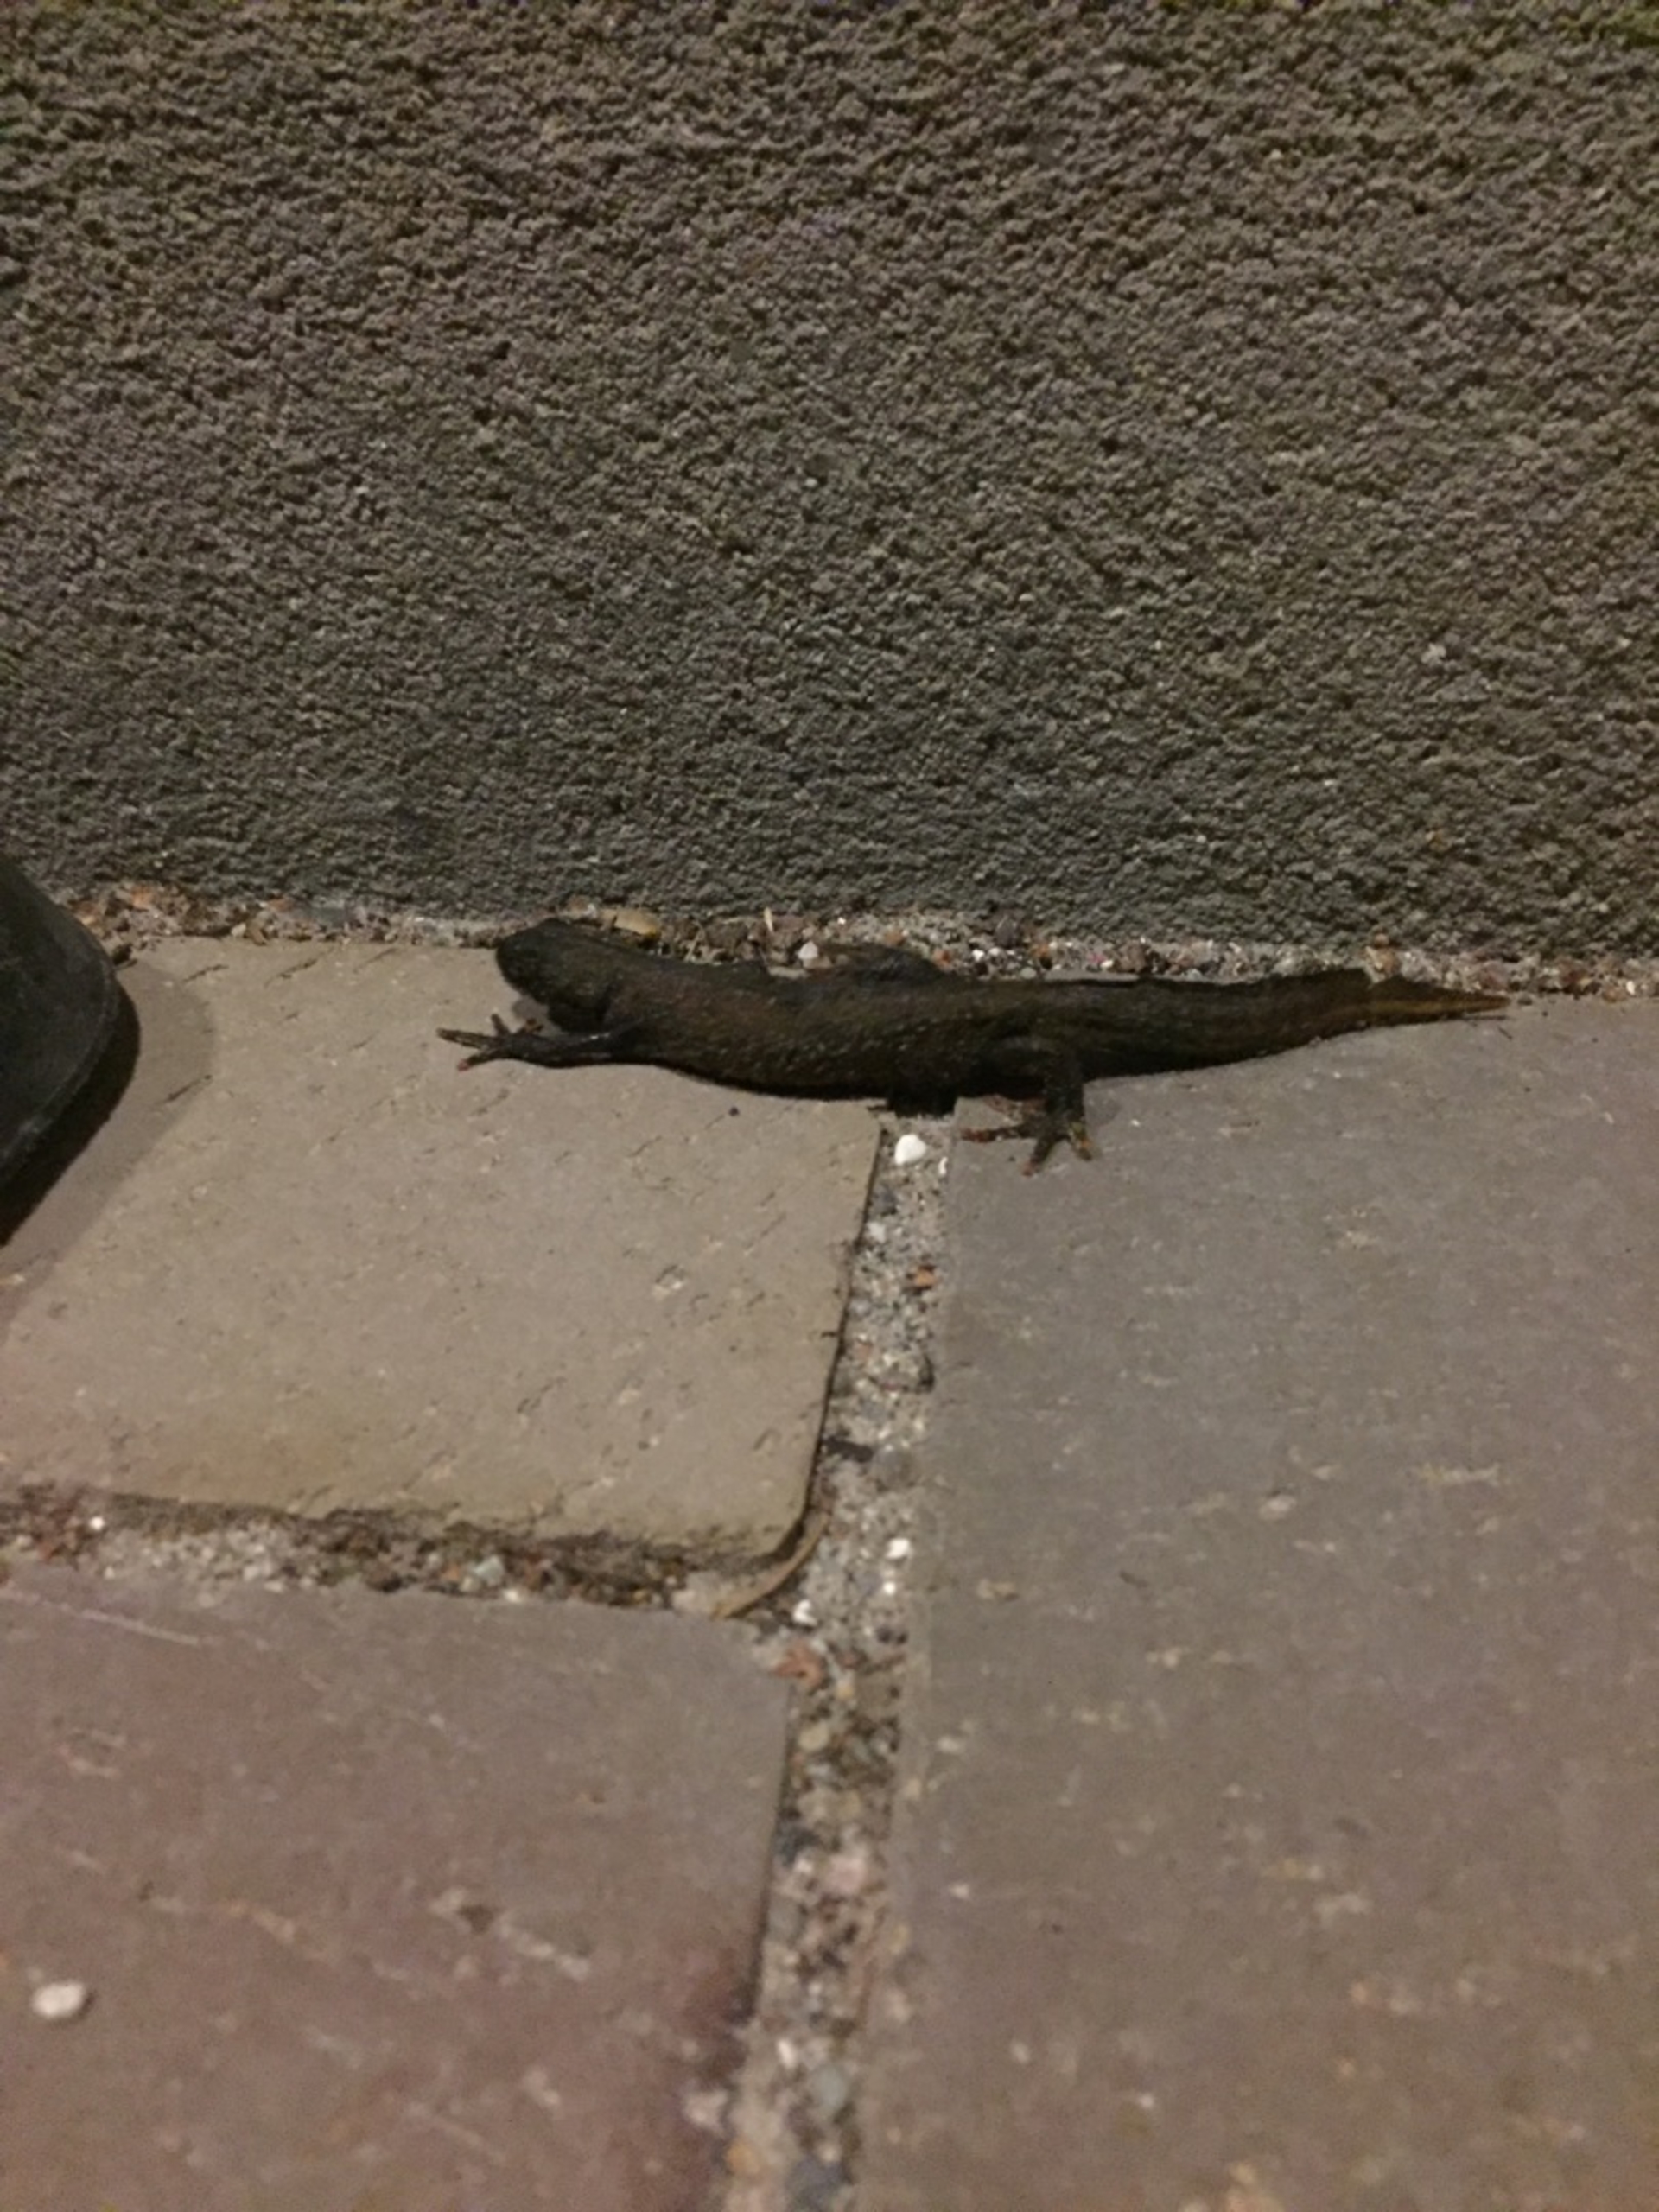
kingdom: Animalia
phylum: Chordata
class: Amphibia
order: Caudata
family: Salamandridae
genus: Triturus
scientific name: Triturus cristatus
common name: Stor vandsalamander
